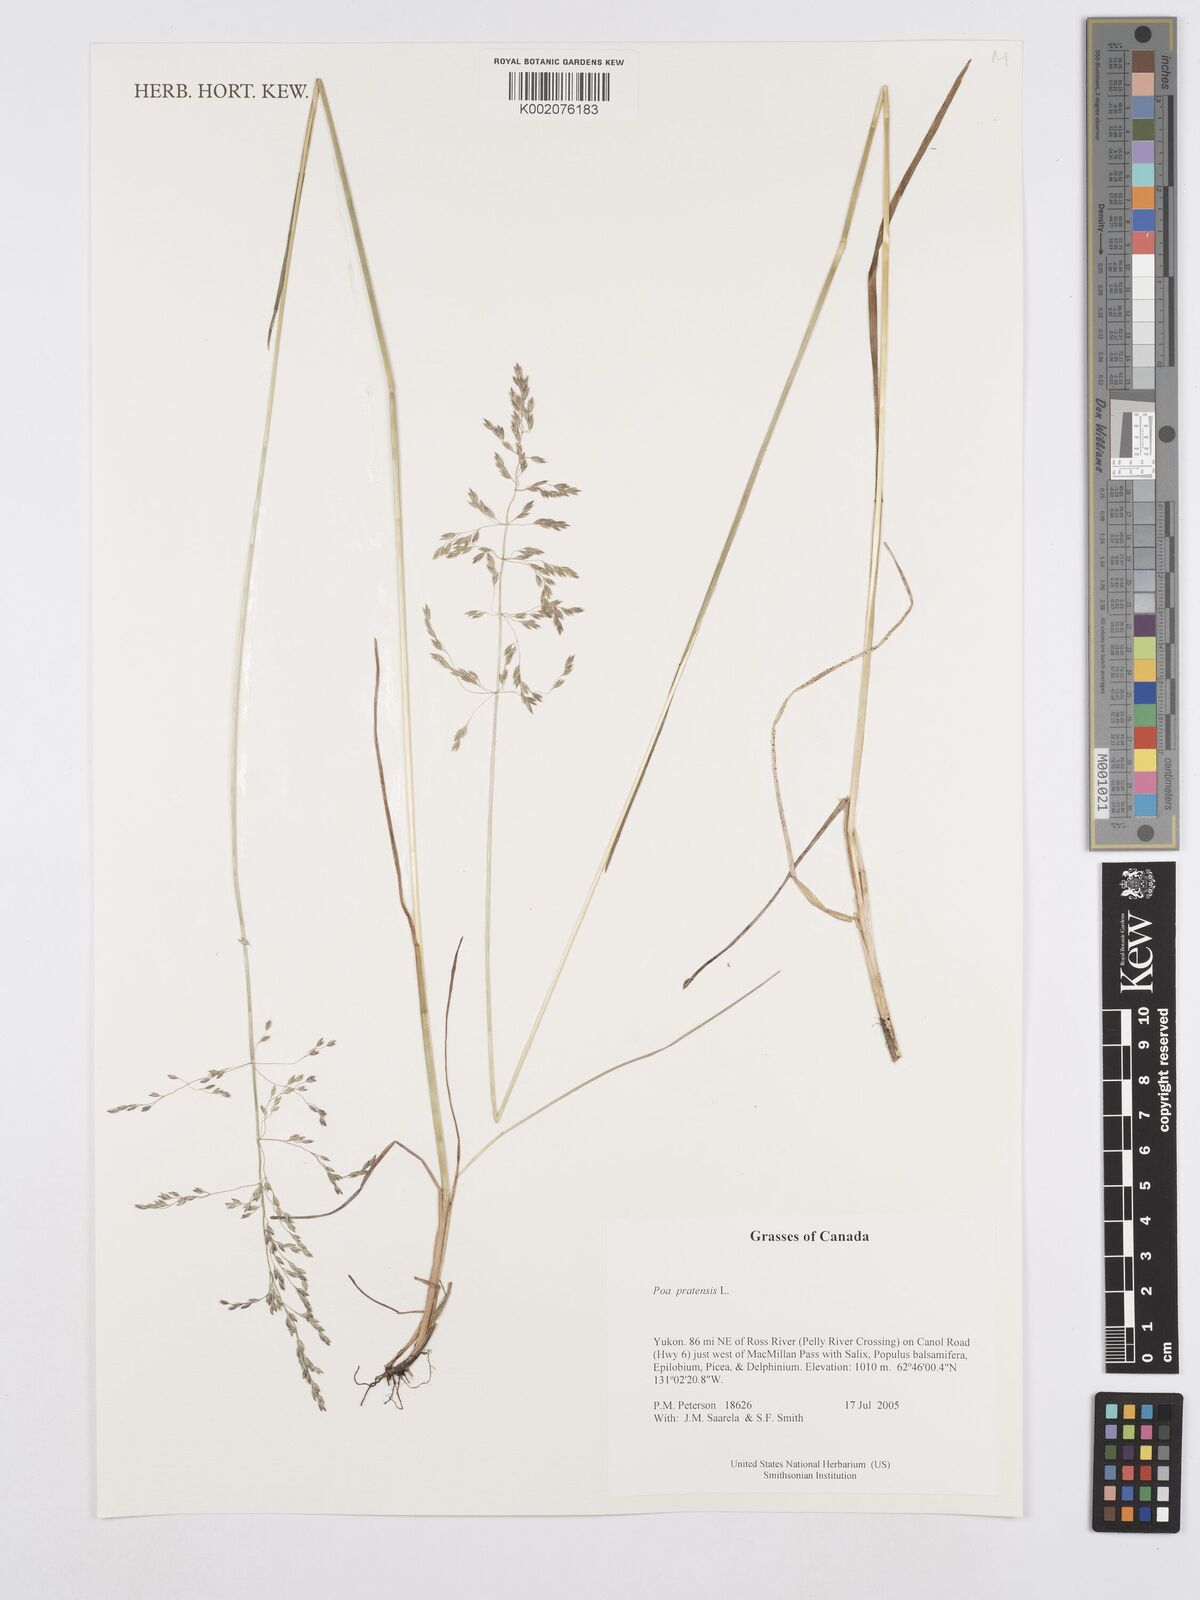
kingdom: Plantae
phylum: Tracheophyta
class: Liliopsida
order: Poales
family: Poaceae
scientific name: Poaceae
